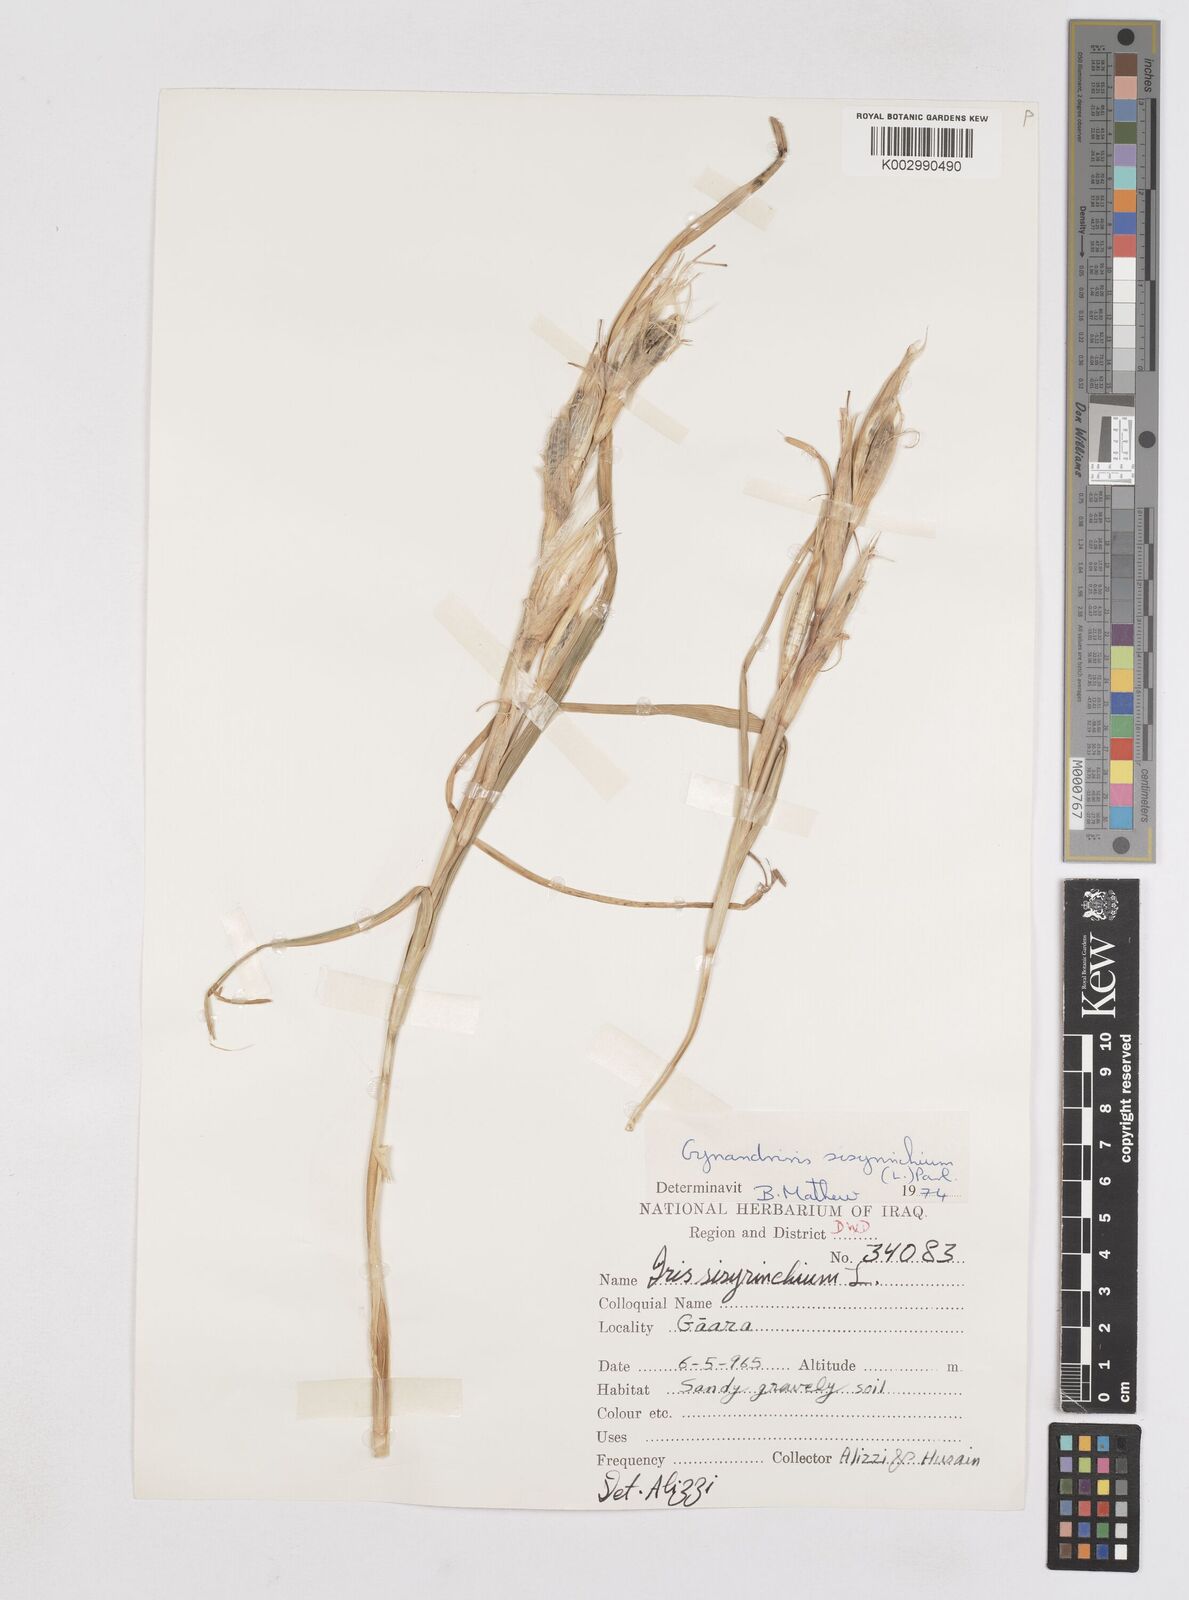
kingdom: Plantae
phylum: Tracheophyta
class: Liliopsida
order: Asparagales
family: Iridaceae
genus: Moraea
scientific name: Moraea sisyrinchium
